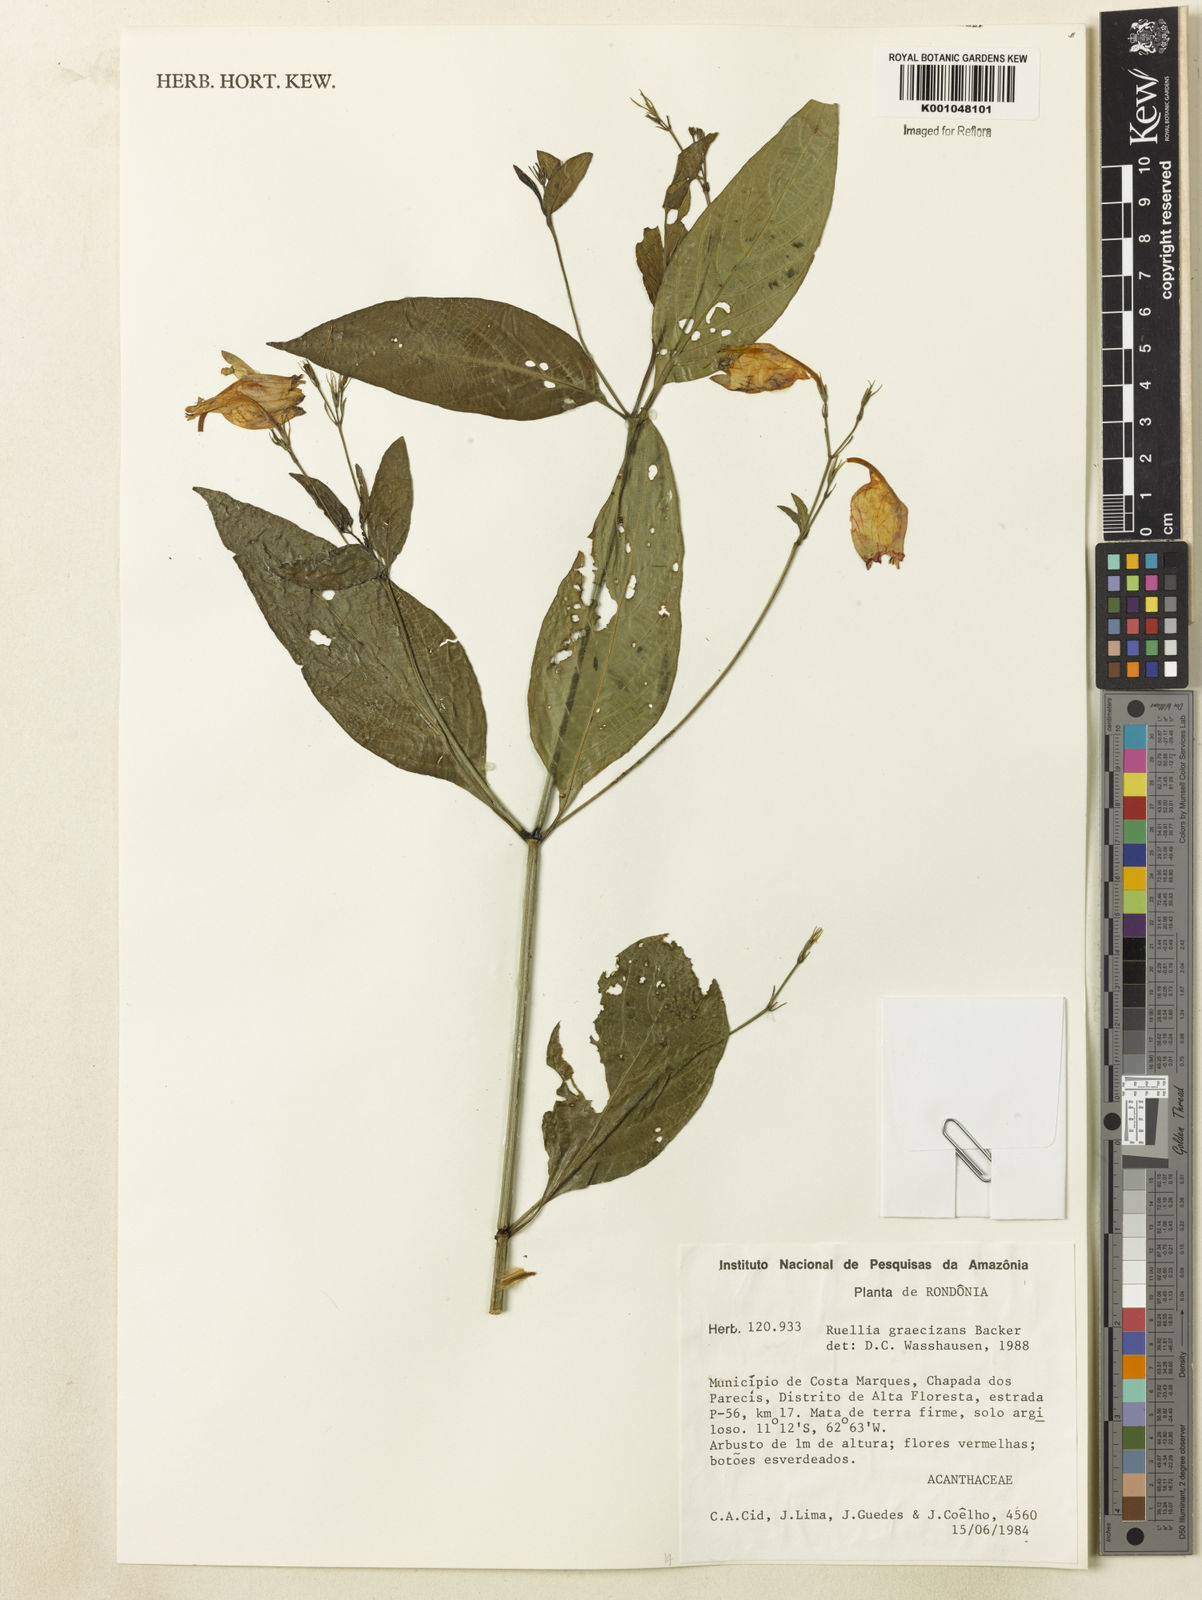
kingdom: Plantae
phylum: Tracheophyta
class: Magnoliopsida
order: Lamiales
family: Acanthaceae
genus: Ruellia
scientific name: Ruellia brevifolia
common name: Tropical wild petunia
